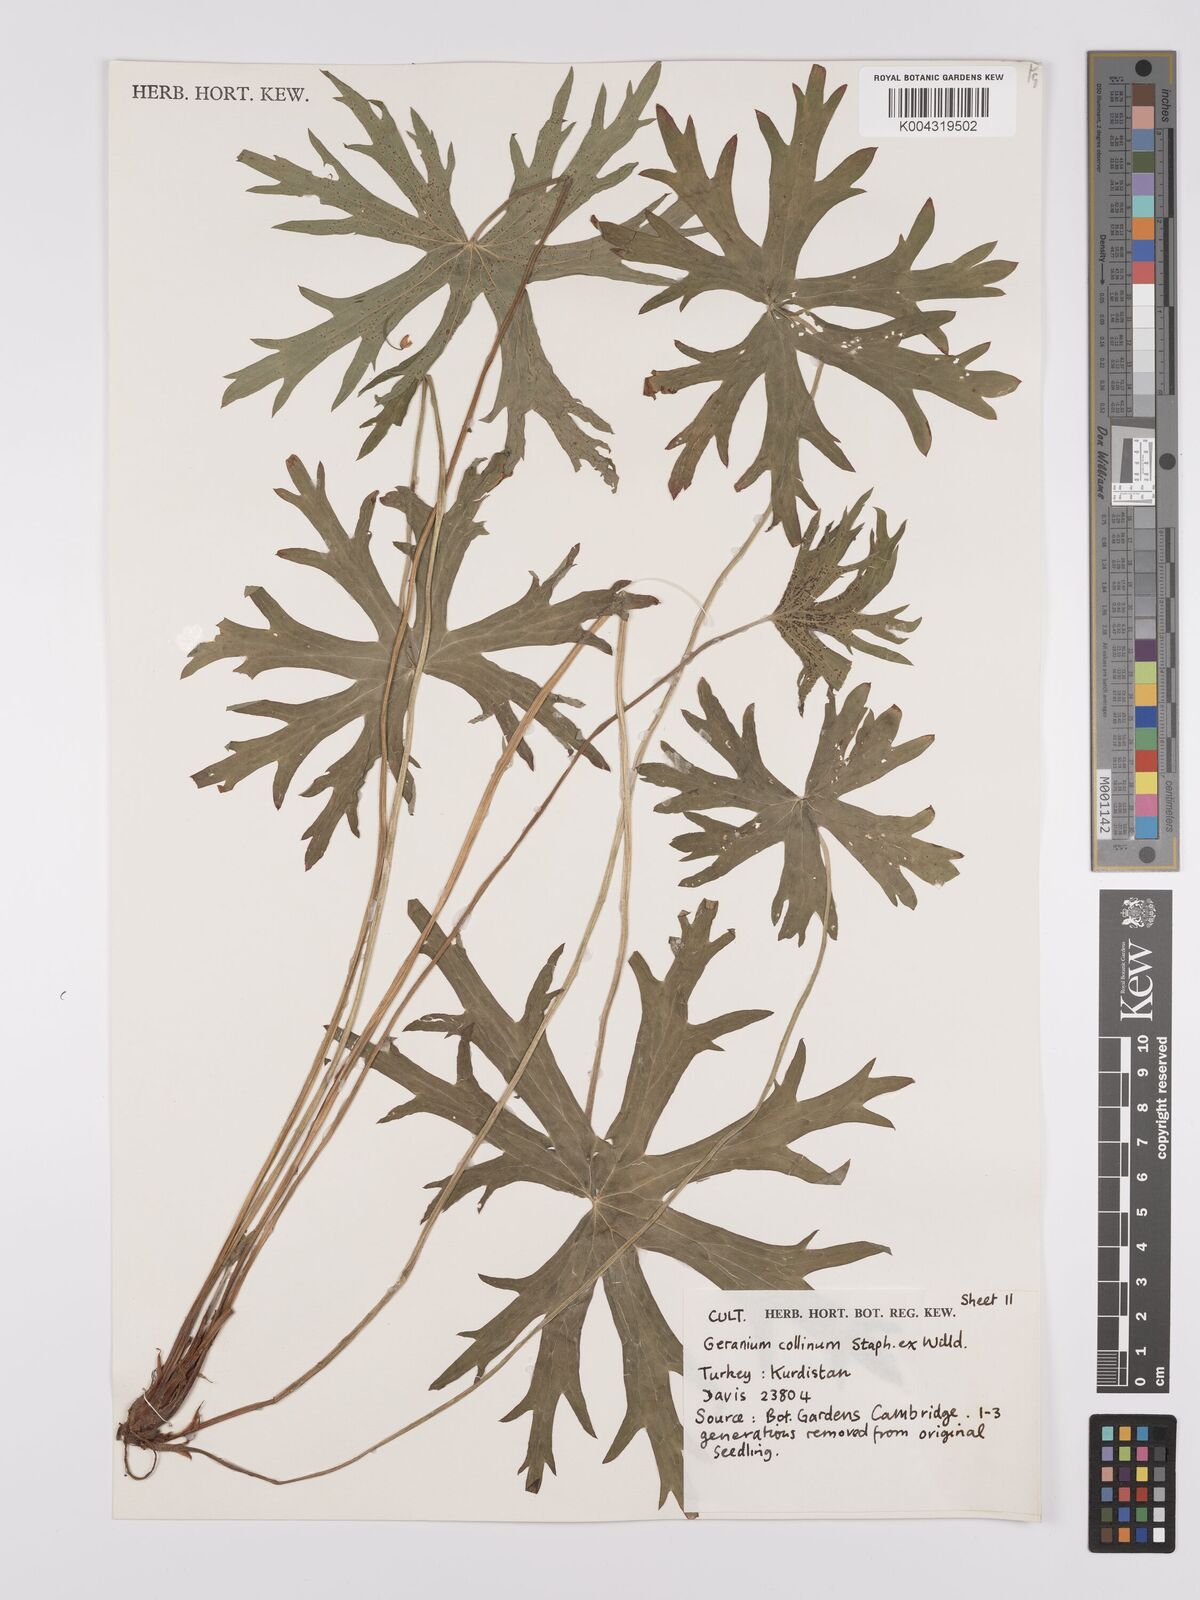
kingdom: Plantae
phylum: Tracheophyta
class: Magnoliopsida
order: Geraniales
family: Geraniaceae
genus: Geranium
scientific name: Geranium collinum
